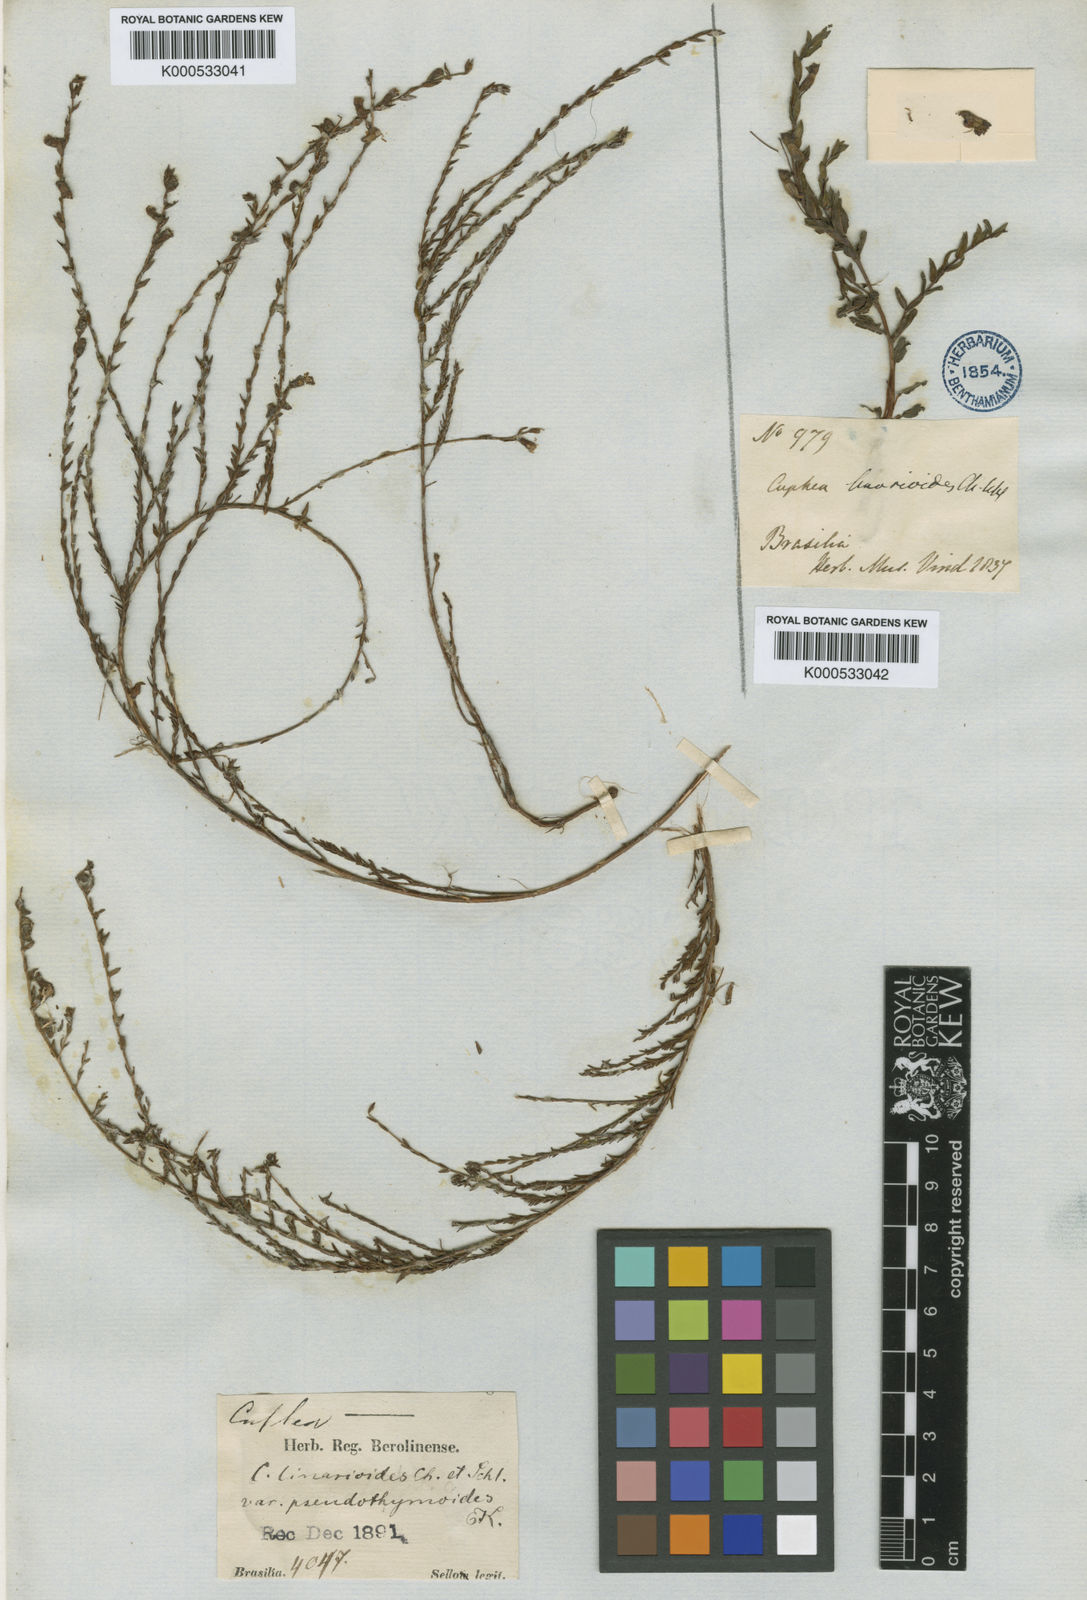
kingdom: Plantae
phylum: Tracheophyta
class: Magnoliopsida
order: Myrtales
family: Lythraceae
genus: Cuphea
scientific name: Cuphea linarioides
